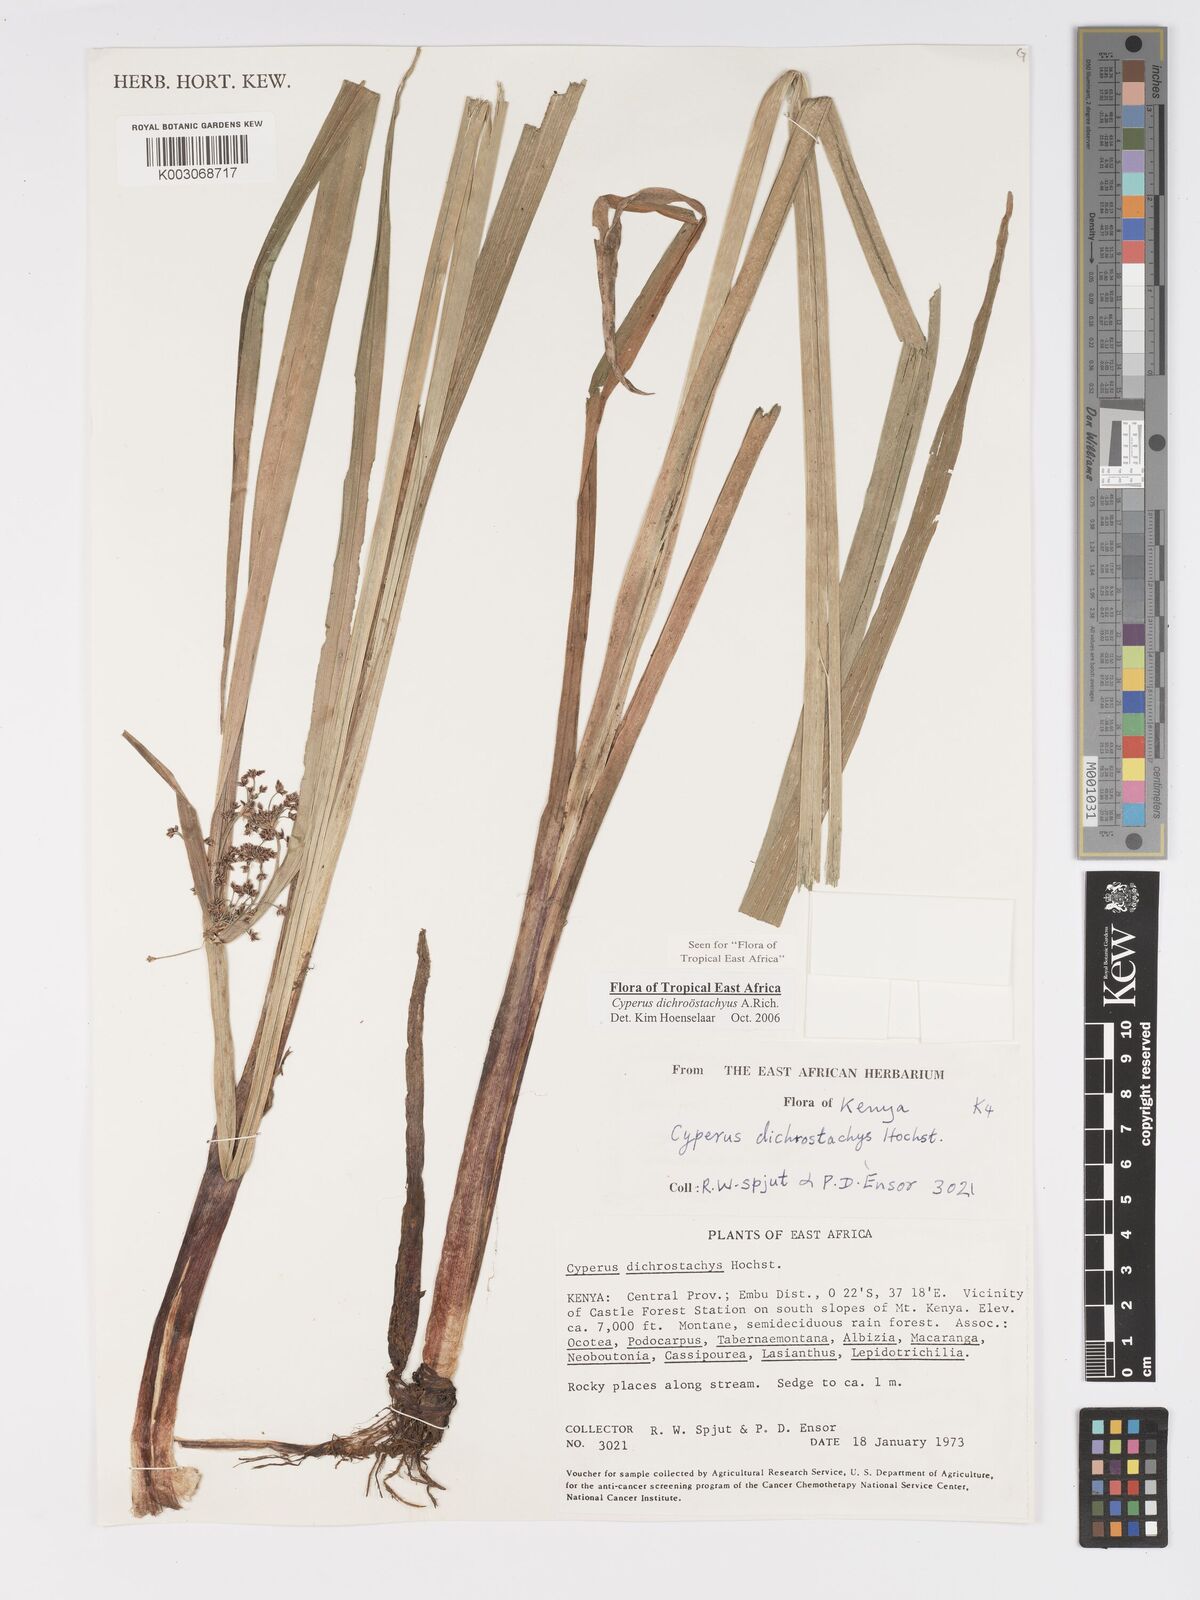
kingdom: Plantae
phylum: Tracheophyta
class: Liliopsida
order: Poales
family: Cyperaceae
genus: Cyperus
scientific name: Cyperus dichrostachyus
